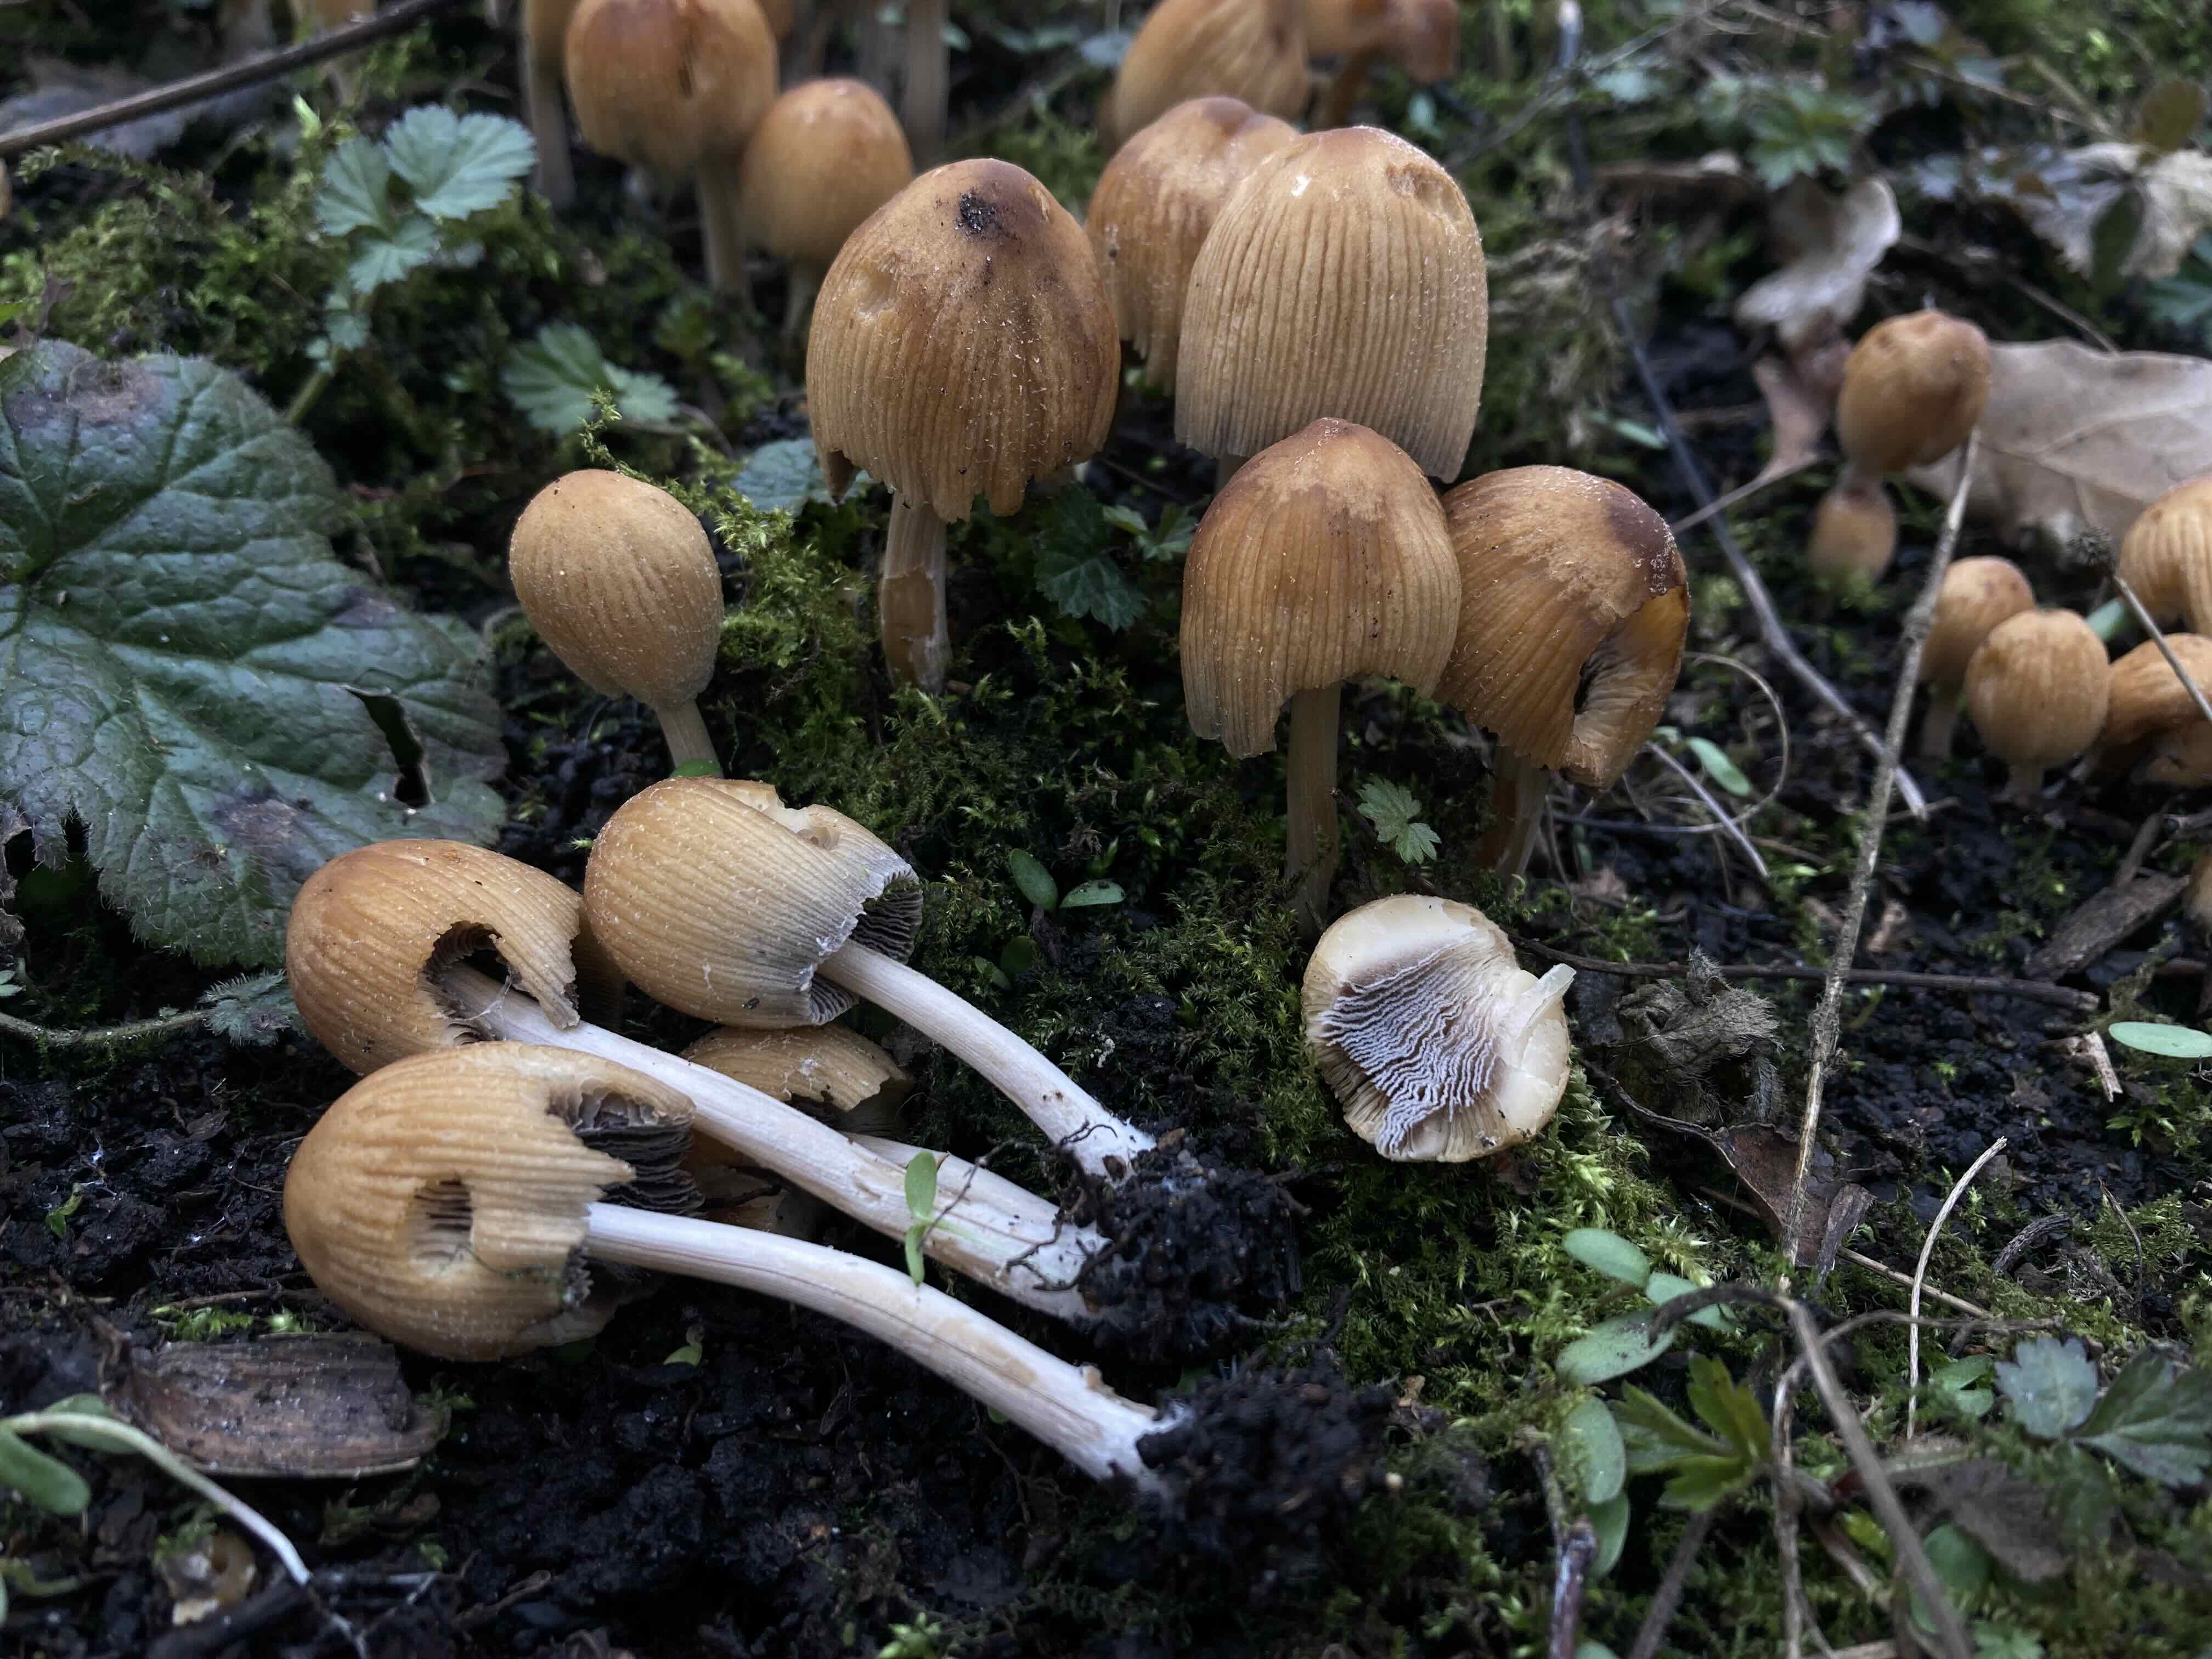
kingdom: Fungi
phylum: Basidiomycota
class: Agaricomycetes
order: Agaricales
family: Psathyrellaceae
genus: Coprinellus
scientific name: Coprinellus micaceus
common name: glimmer-blækhat
